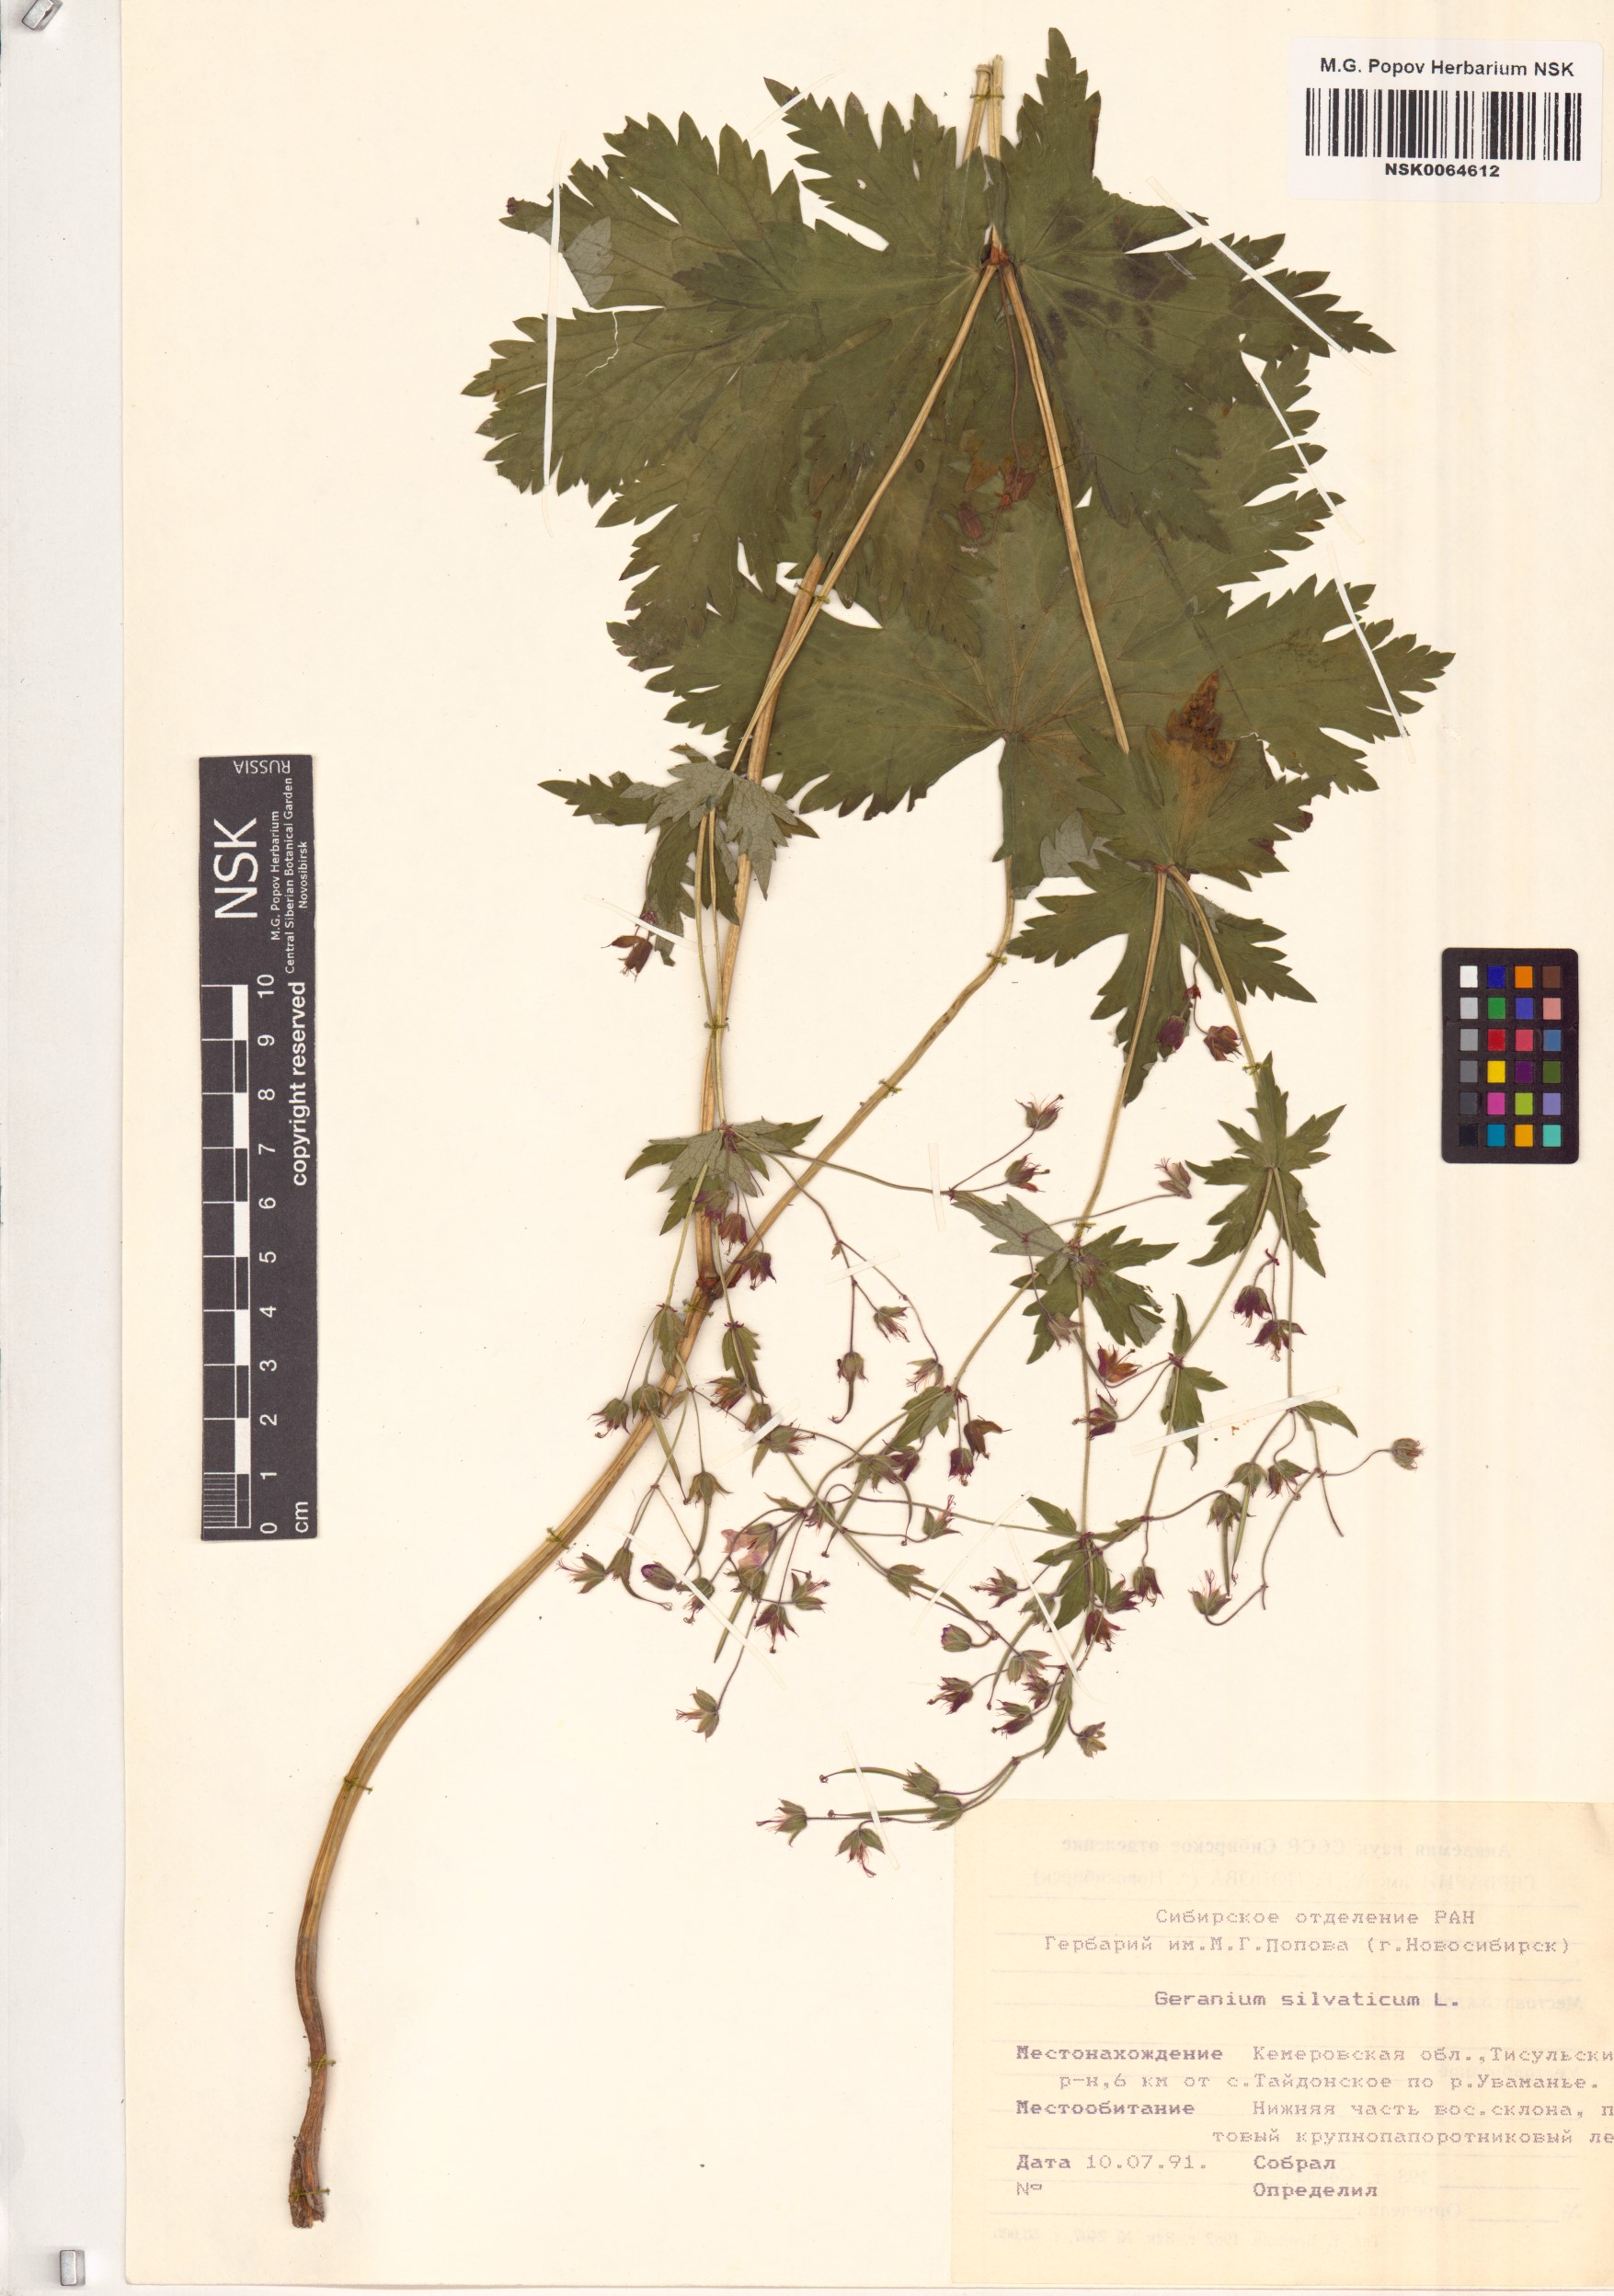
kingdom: Plantae
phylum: Tracheophyta
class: Magnoliopsida
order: Geraniales
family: Geraniaceae
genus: Geranium
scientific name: Geranium sylvaticum
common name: Wood crane's-bill
